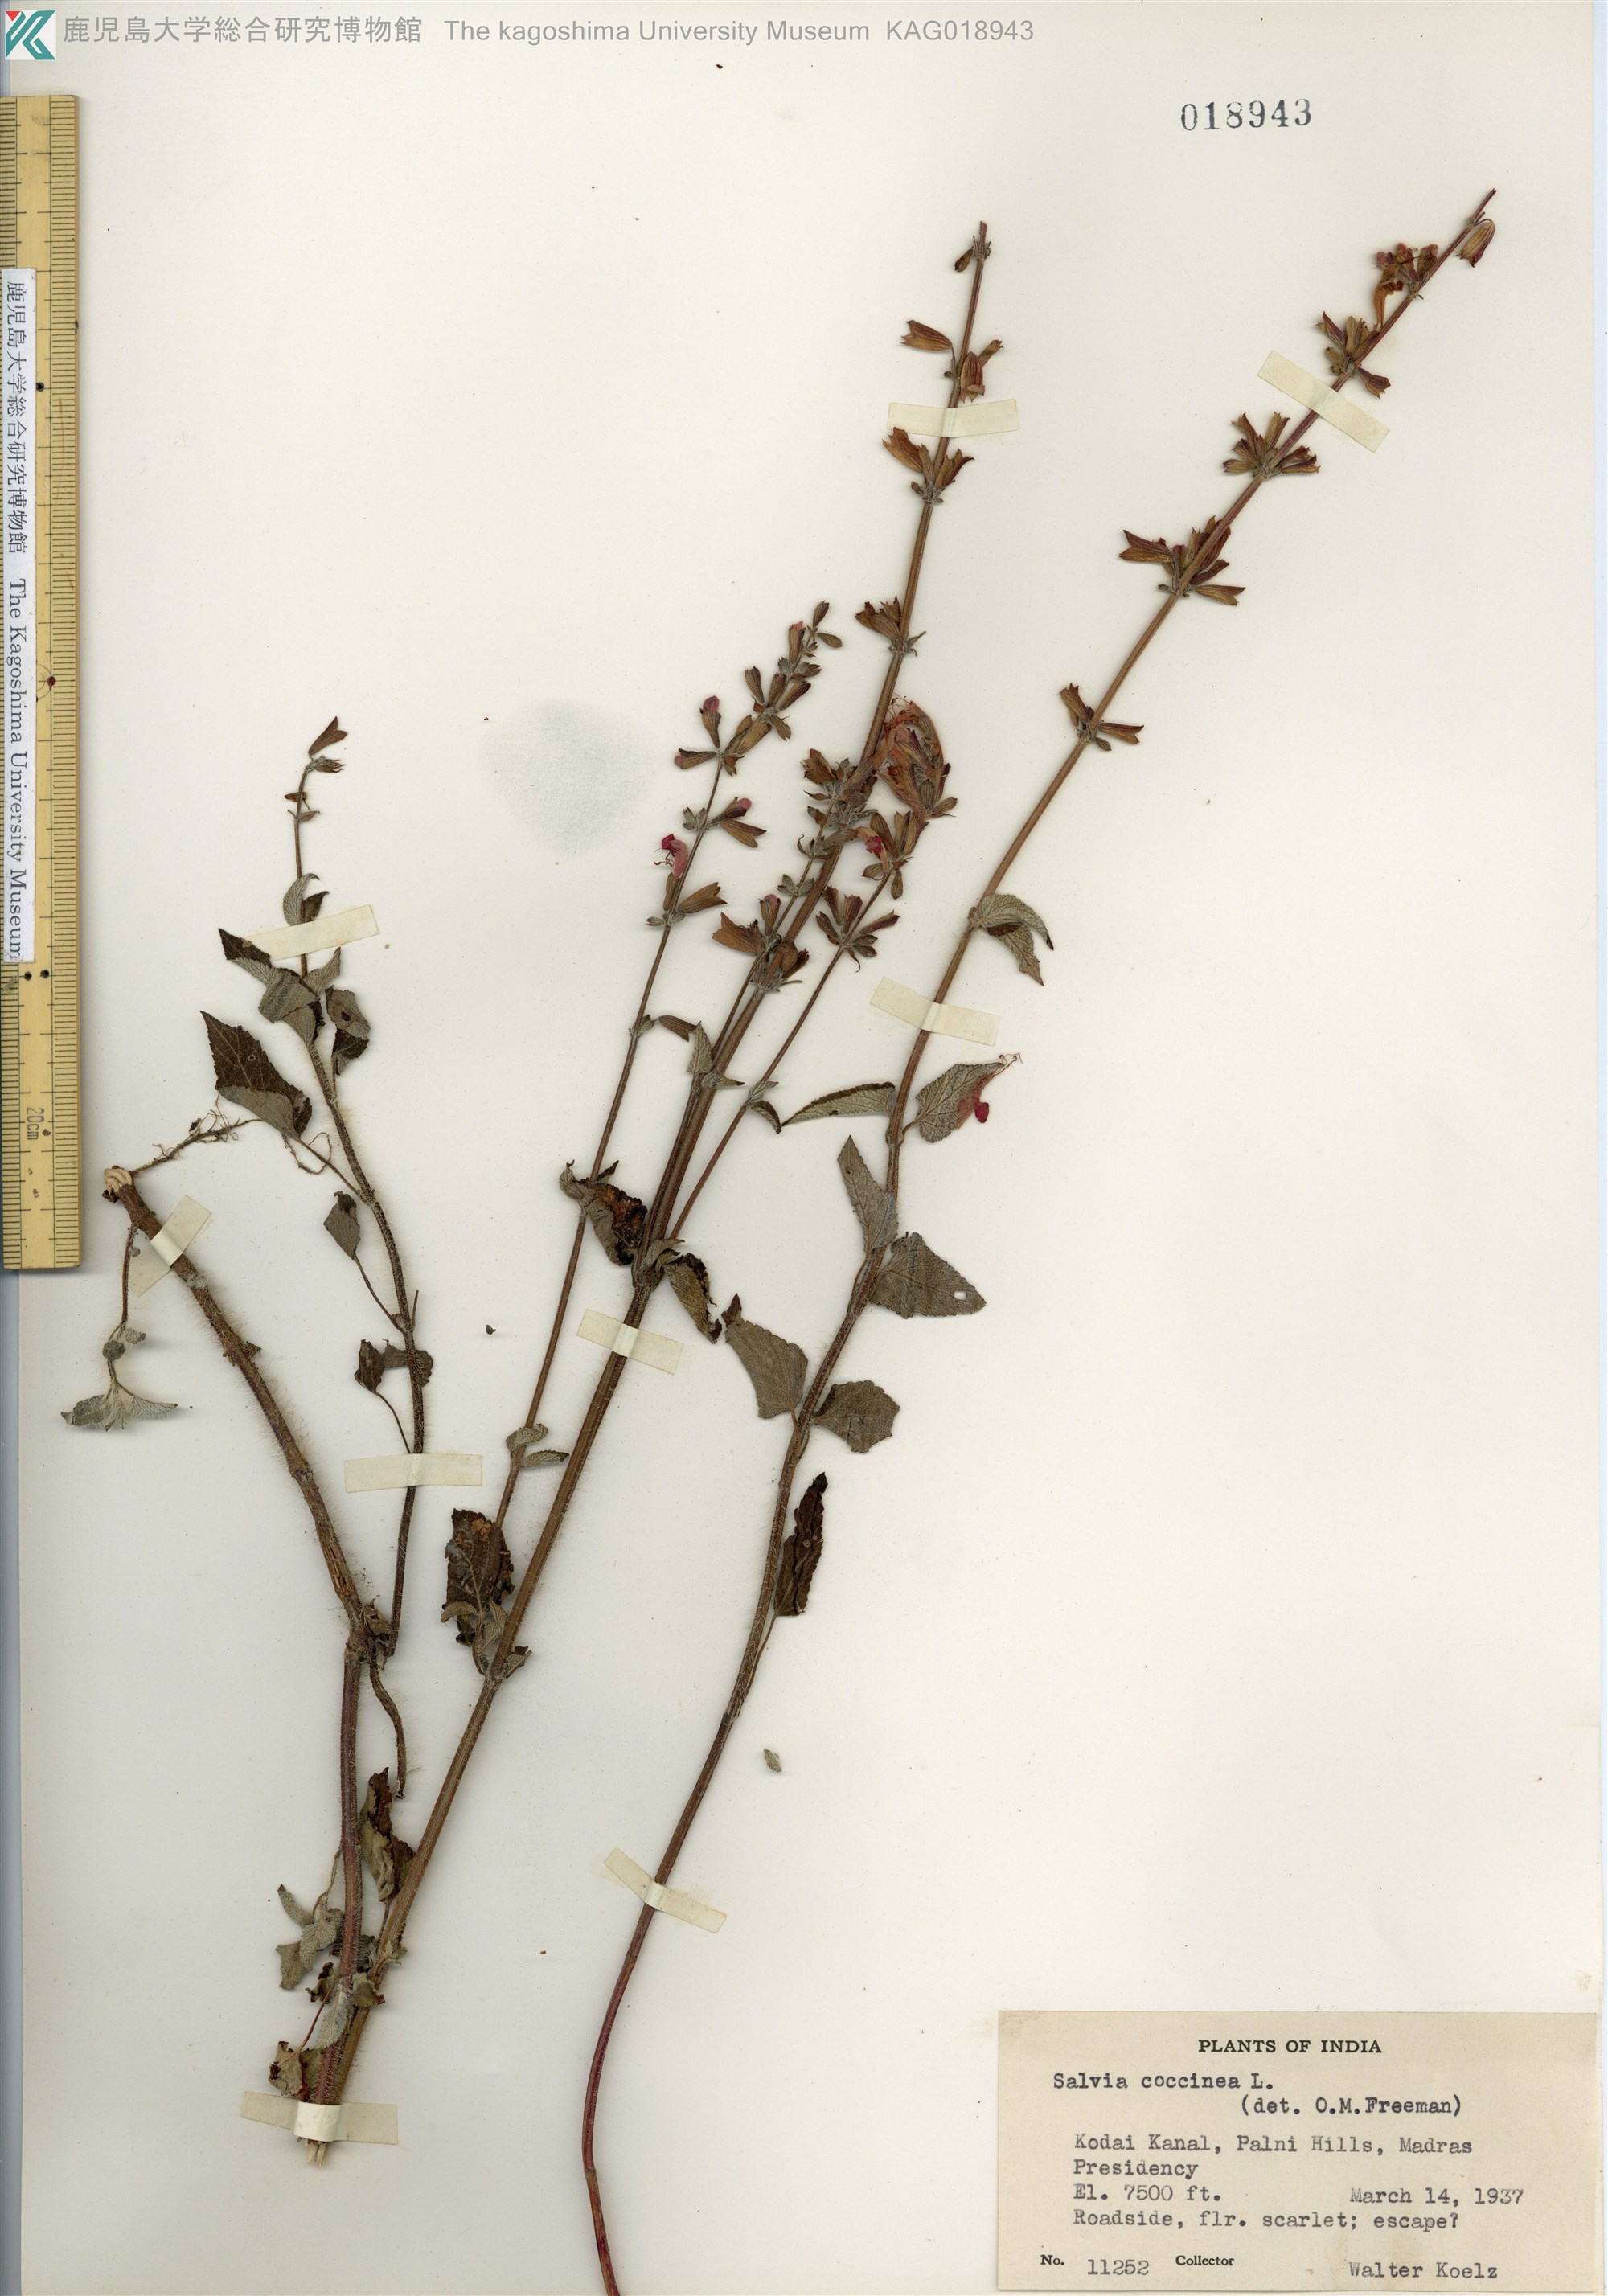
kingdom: Plantae
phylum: Tracheophyta
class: Magnoliopsida
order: Lamiales
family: Lamiaceae
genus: Salvia
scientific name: Salvia coccinea
